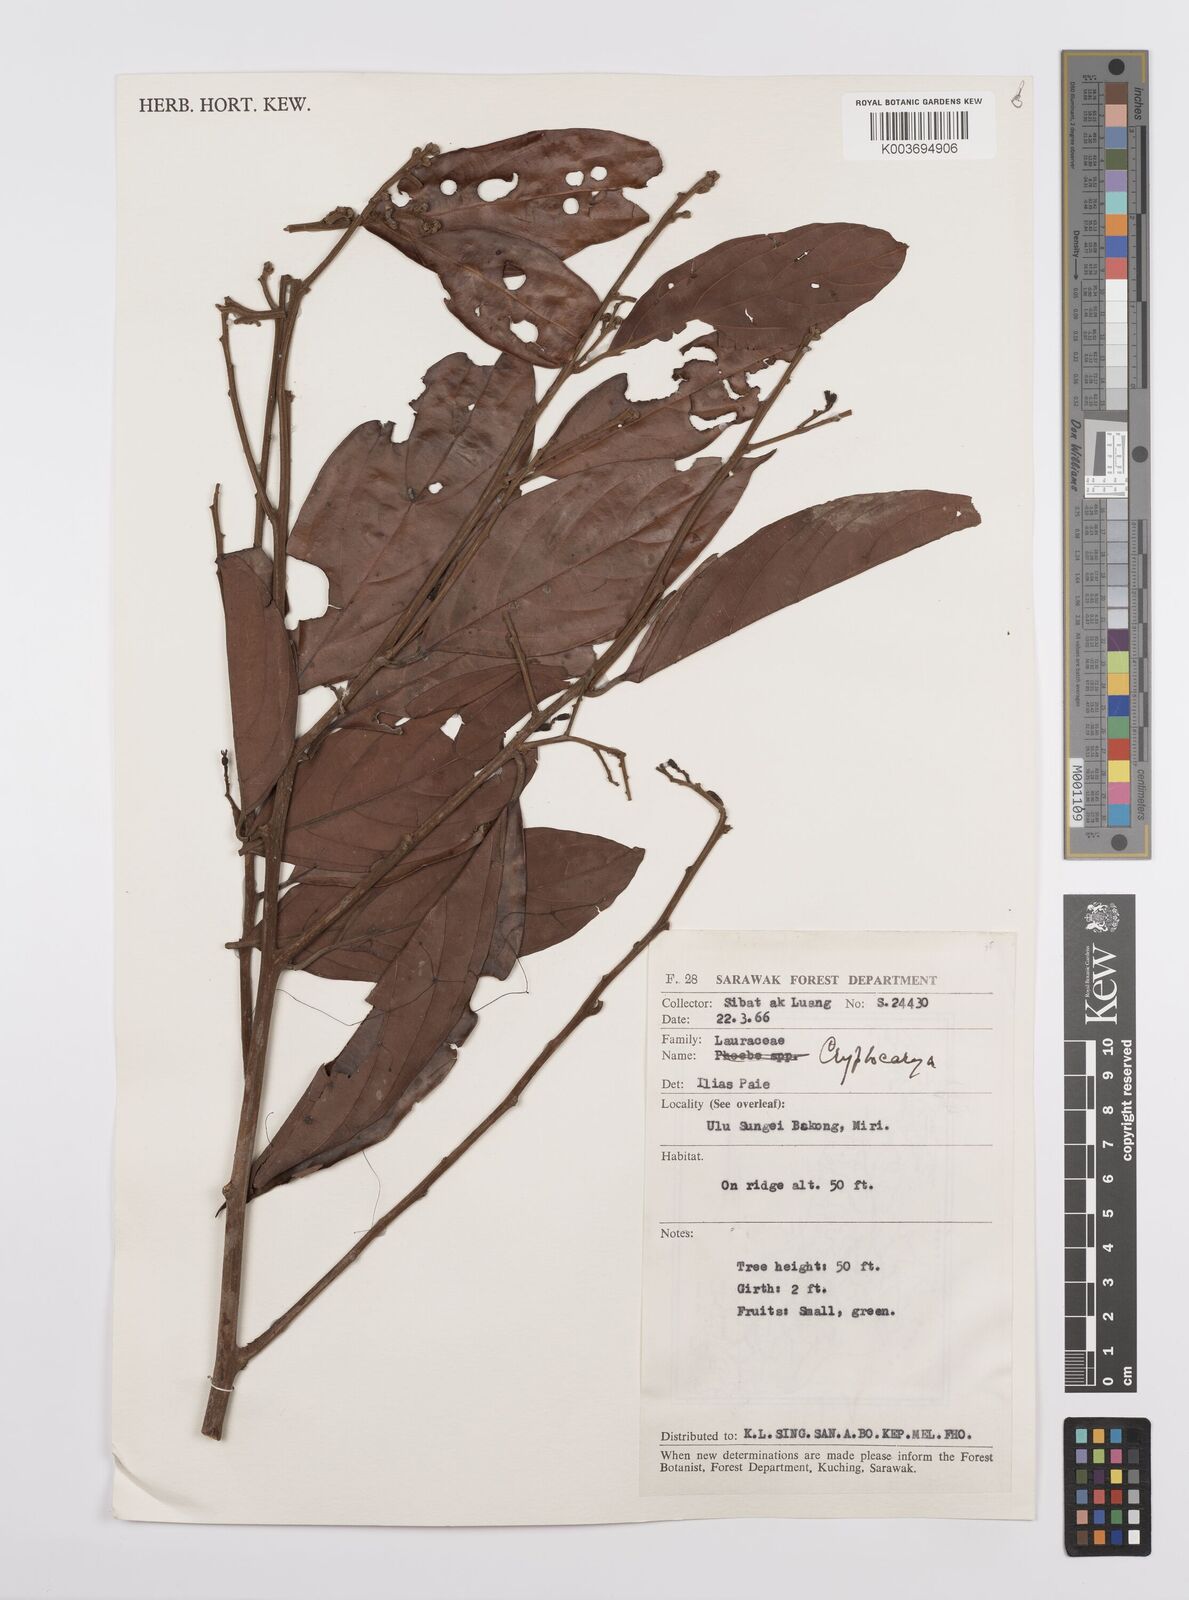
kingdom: Plantae
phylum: Tracheophyta
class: Magnoliopsida
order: Laurales
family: Lauraceae
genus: Cryptocarya
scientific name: Cryptocarya
